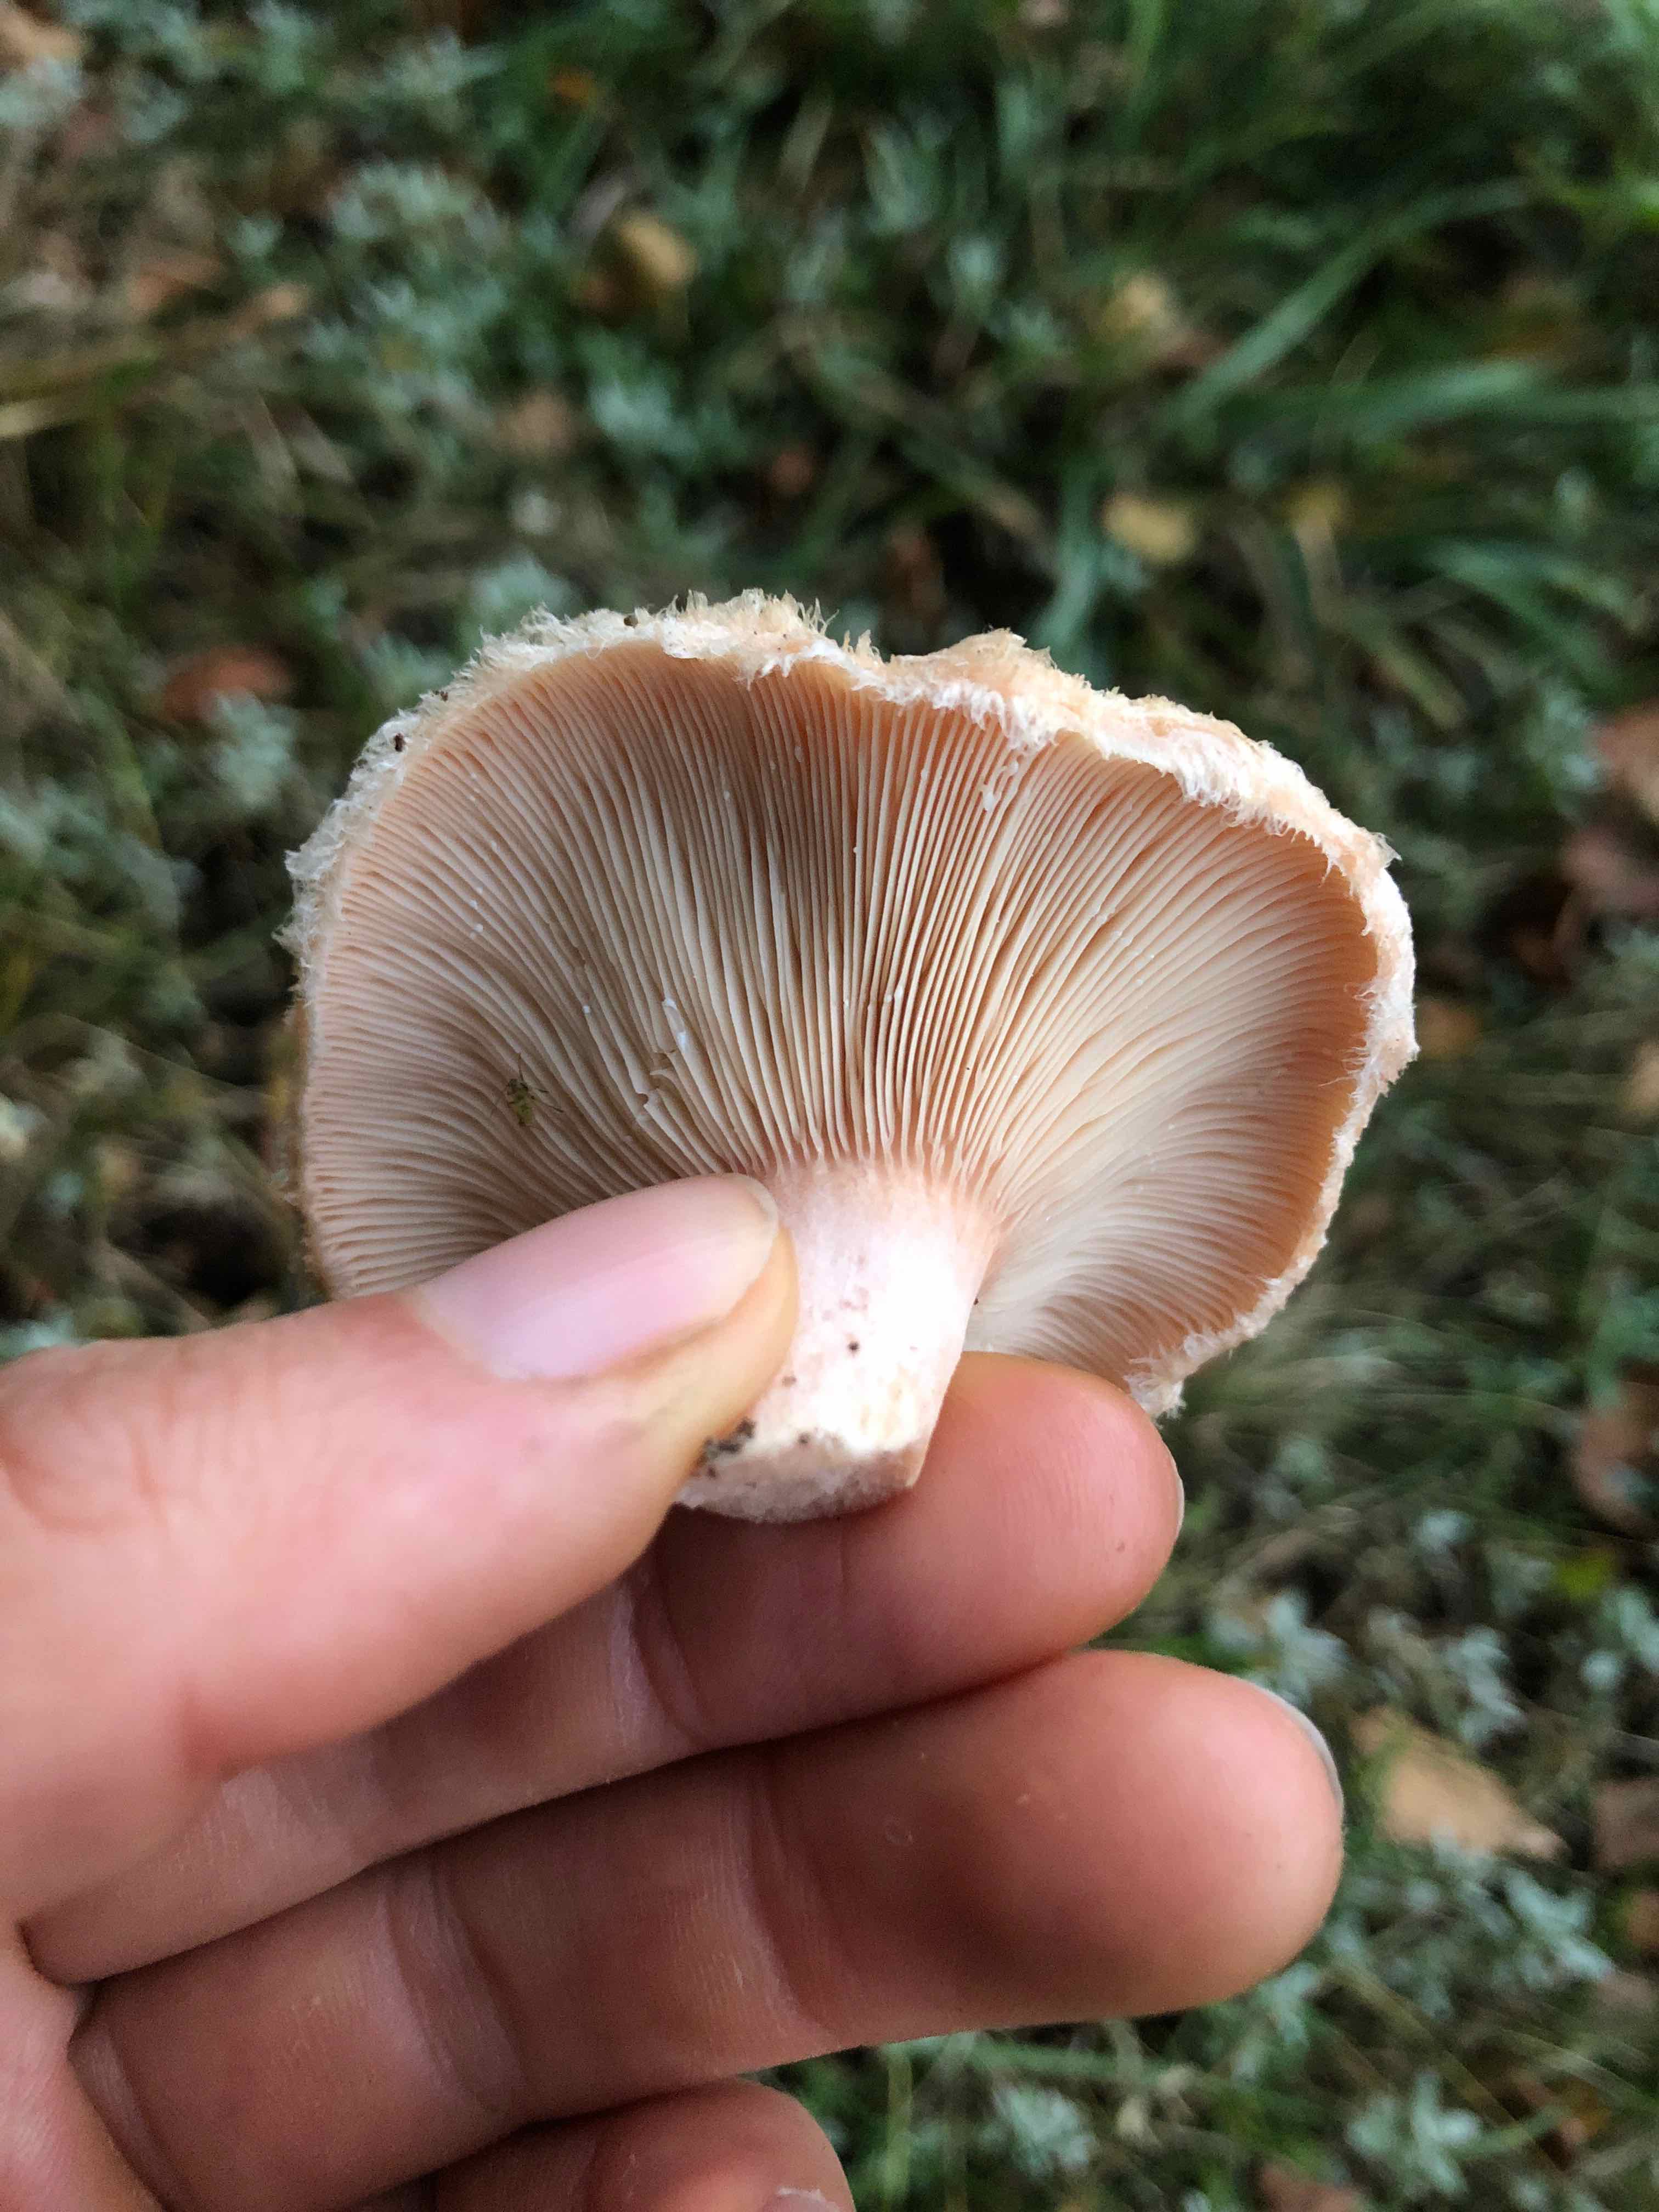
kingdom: Fungi
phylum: Basidiomycota
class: Agaricomycetes
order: Russulales
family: Russulaceae
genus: Lactarius
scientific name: Lactarius pubescens
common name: dunet mælkehat
